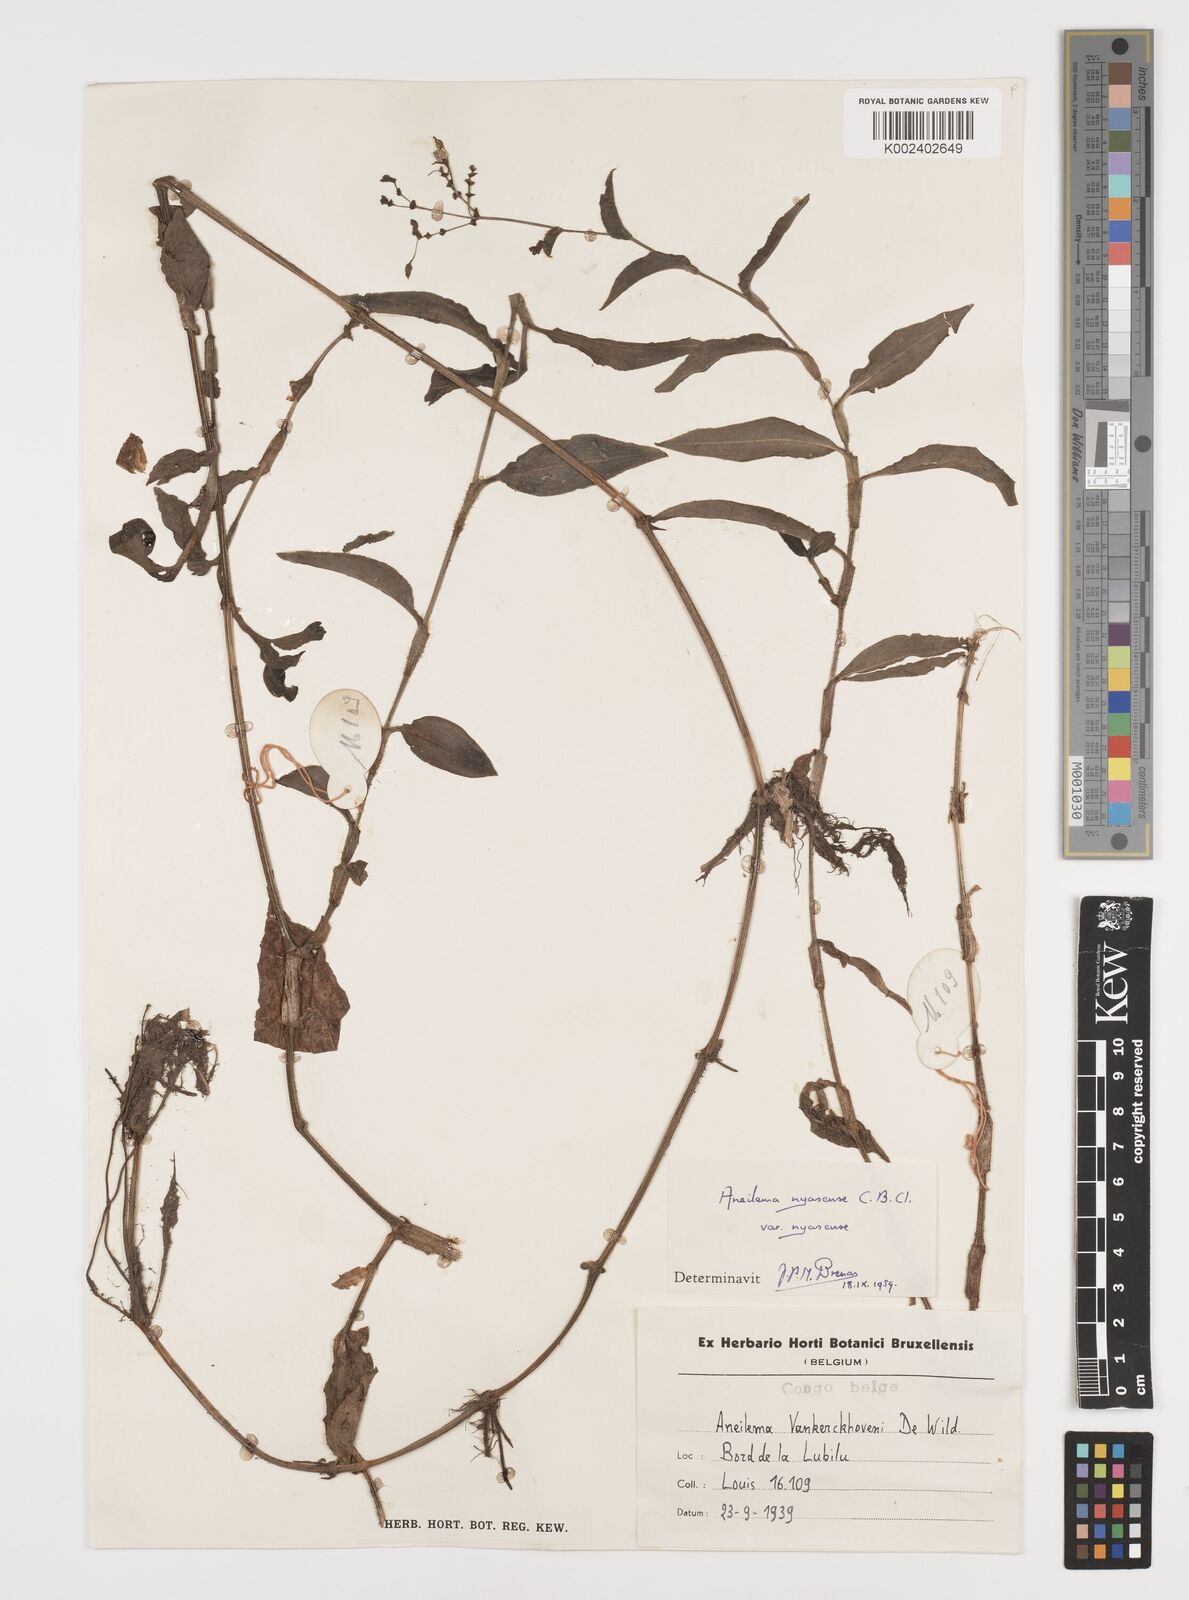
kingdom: Plantae
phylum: Tracheophyta
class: Liliopsida
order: Commelinales
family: Commelinaceae
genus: Aneilema
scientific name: Aneilema nyasense
